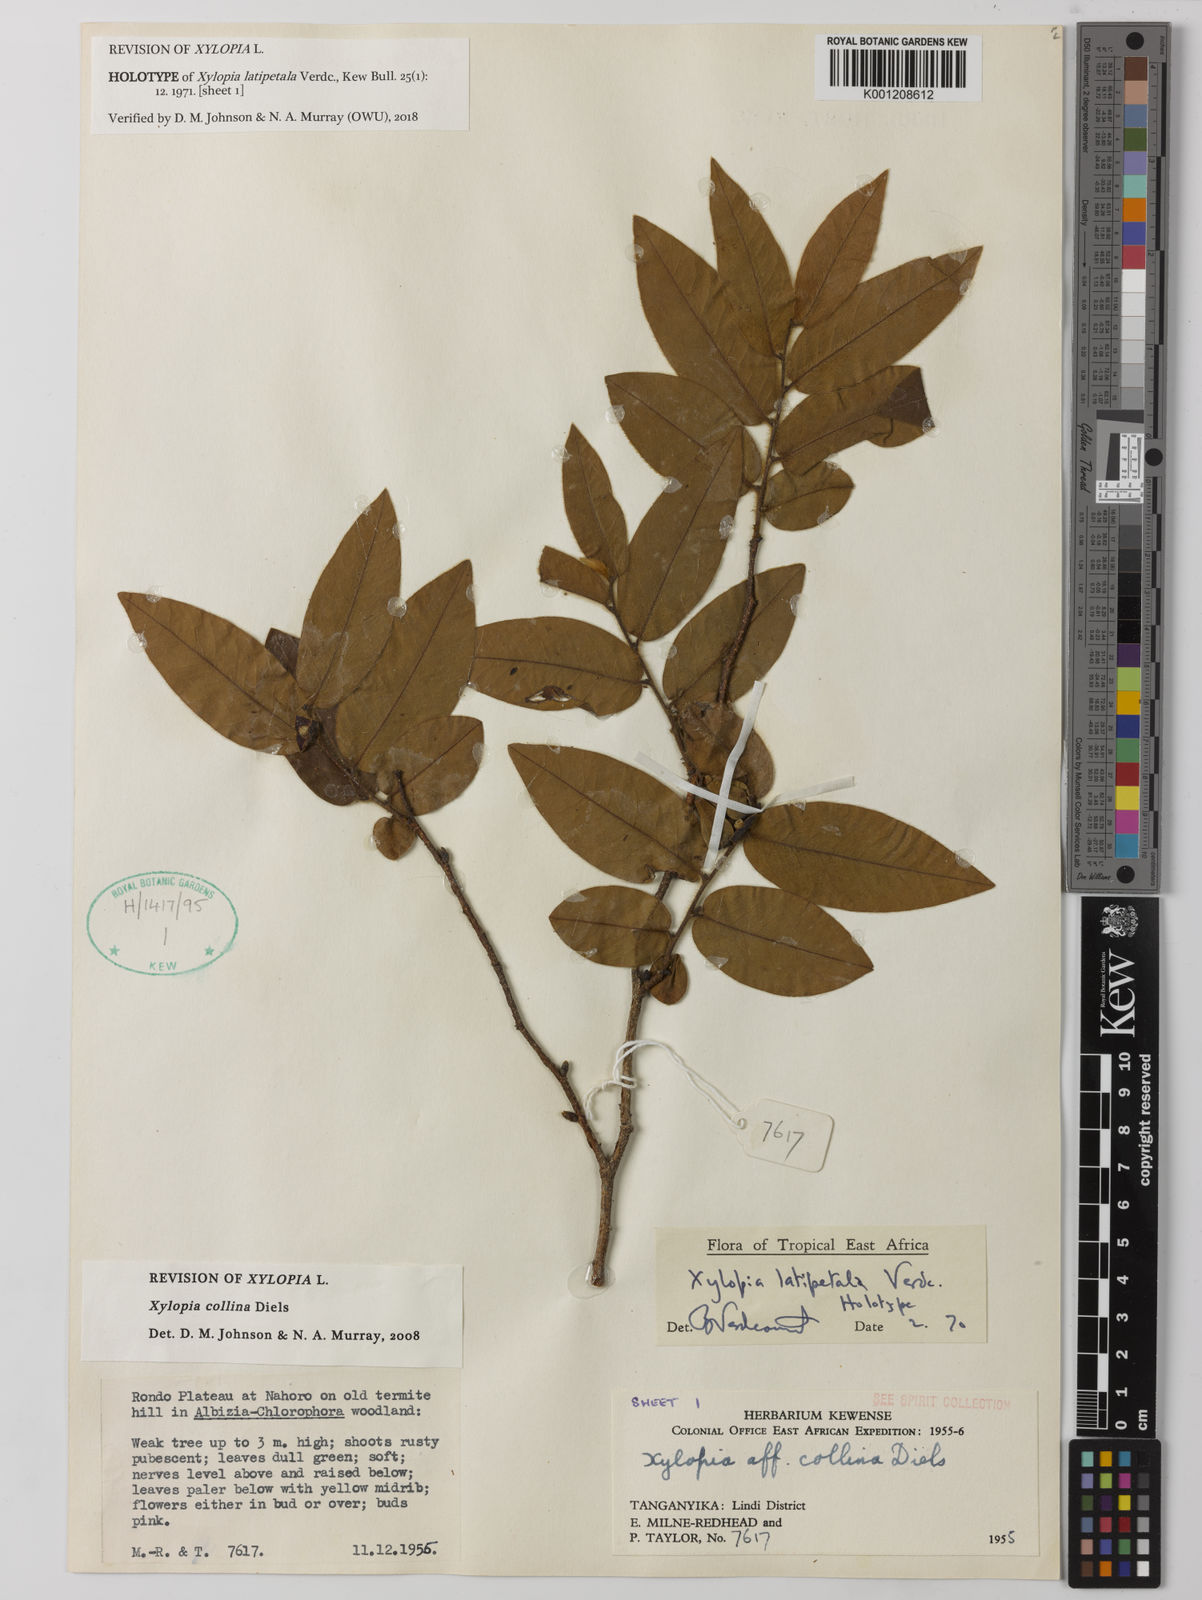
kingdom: Plantae
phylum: Tracheophyta
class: Magnoliopsida
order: Magnoliales
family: Annonaceae
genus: Xylopia
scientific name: Xylopia collina
